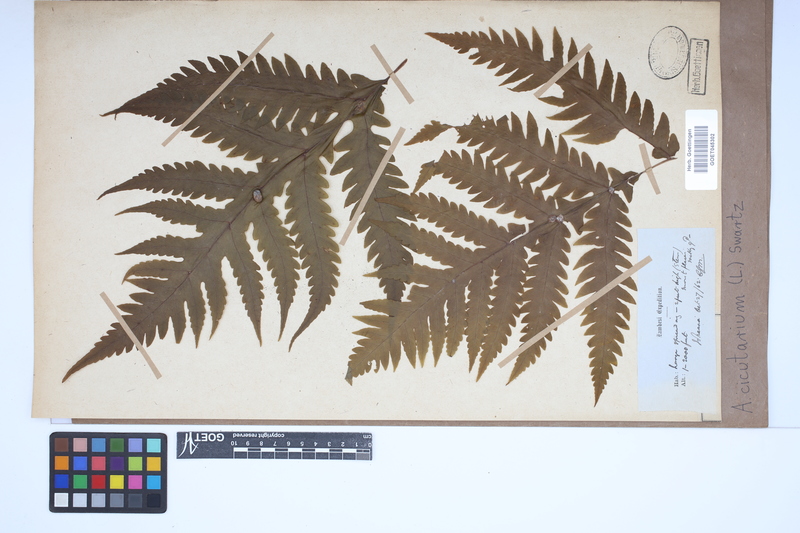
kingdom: Plantae
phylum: Tracheophyta
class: Polypodiopsida
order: Polypodiales
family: Tectariaceae
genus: Tectaria
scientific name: Tectaria cicutaria
